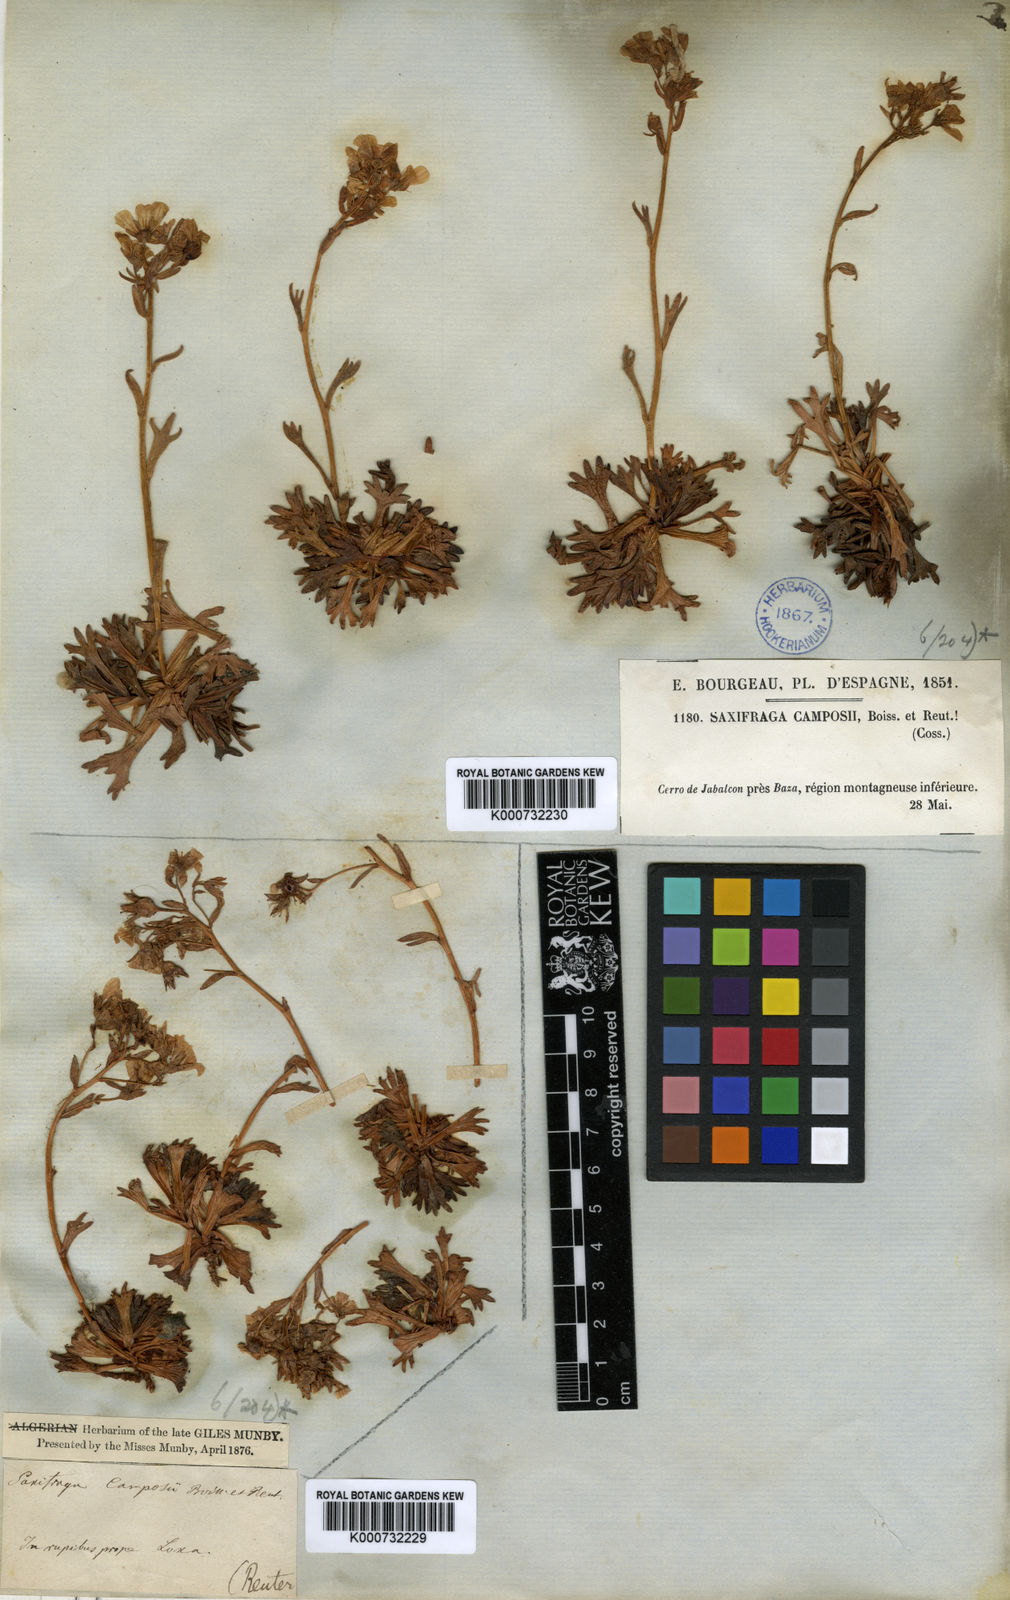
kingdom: Plantae
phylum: Tracheophyta
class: Magnoliopsida
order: Saxifragales
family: Saxifragaceae
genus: Saxifraga
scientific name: Saxifraga camposii
